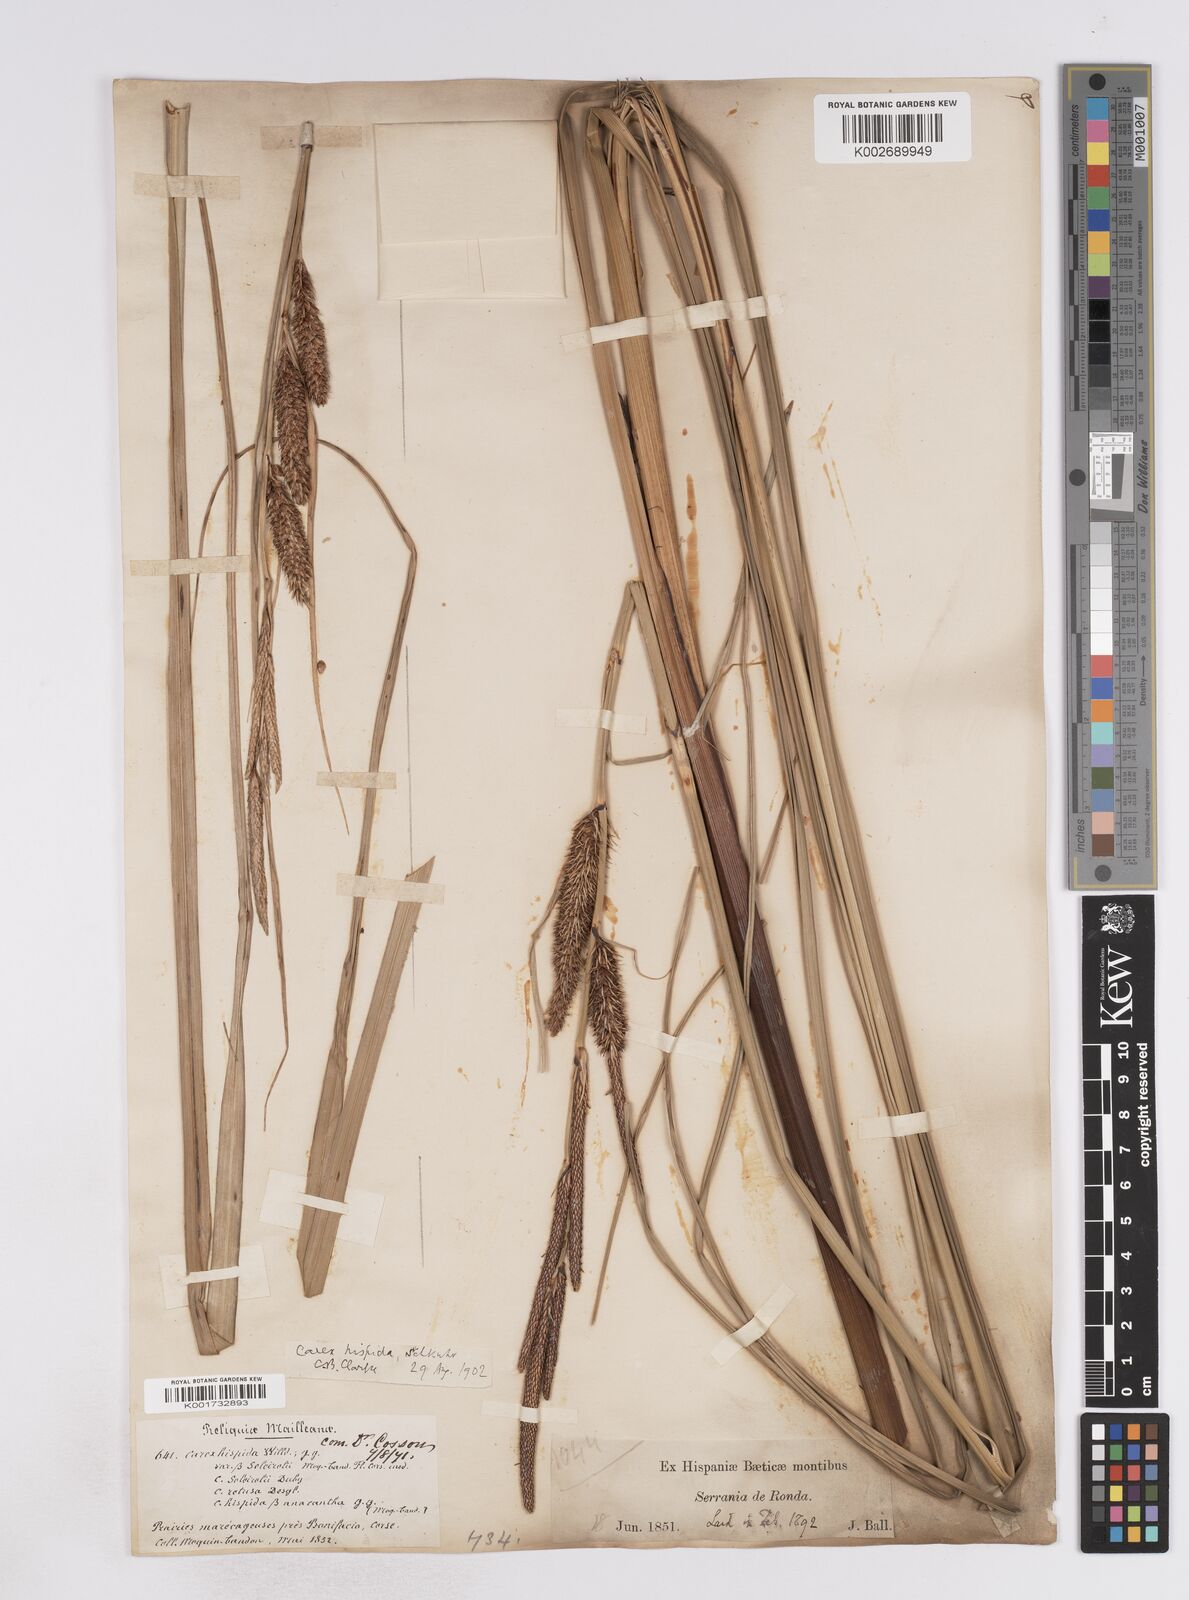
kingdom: Plantae
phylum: Tracheophyta
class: Liliopsida
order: Poales
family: Cyperaceae
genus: Carex
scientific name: Carex hispida
